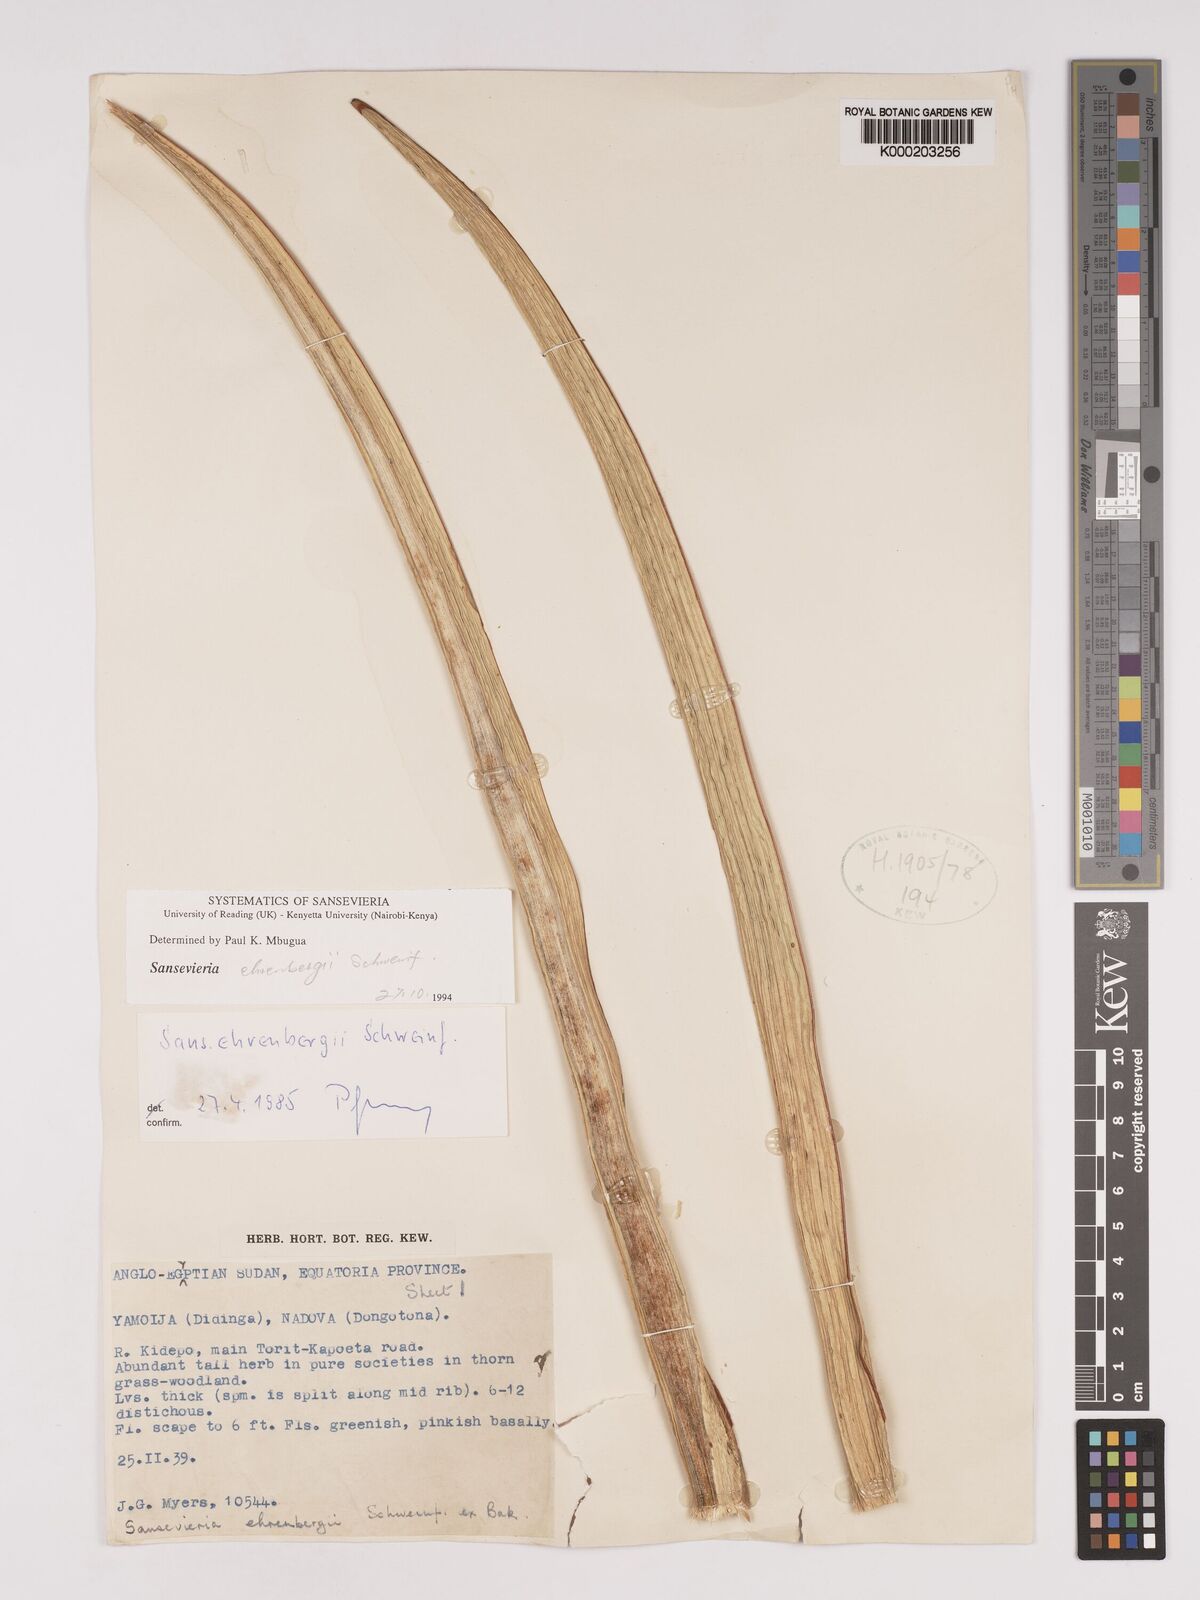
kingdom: Plantae
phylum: Tracheophyta
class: Liliopsida
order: Asparagales
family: Asparagaceae
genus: Dracaena
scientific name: Dracaena hanningtonii
